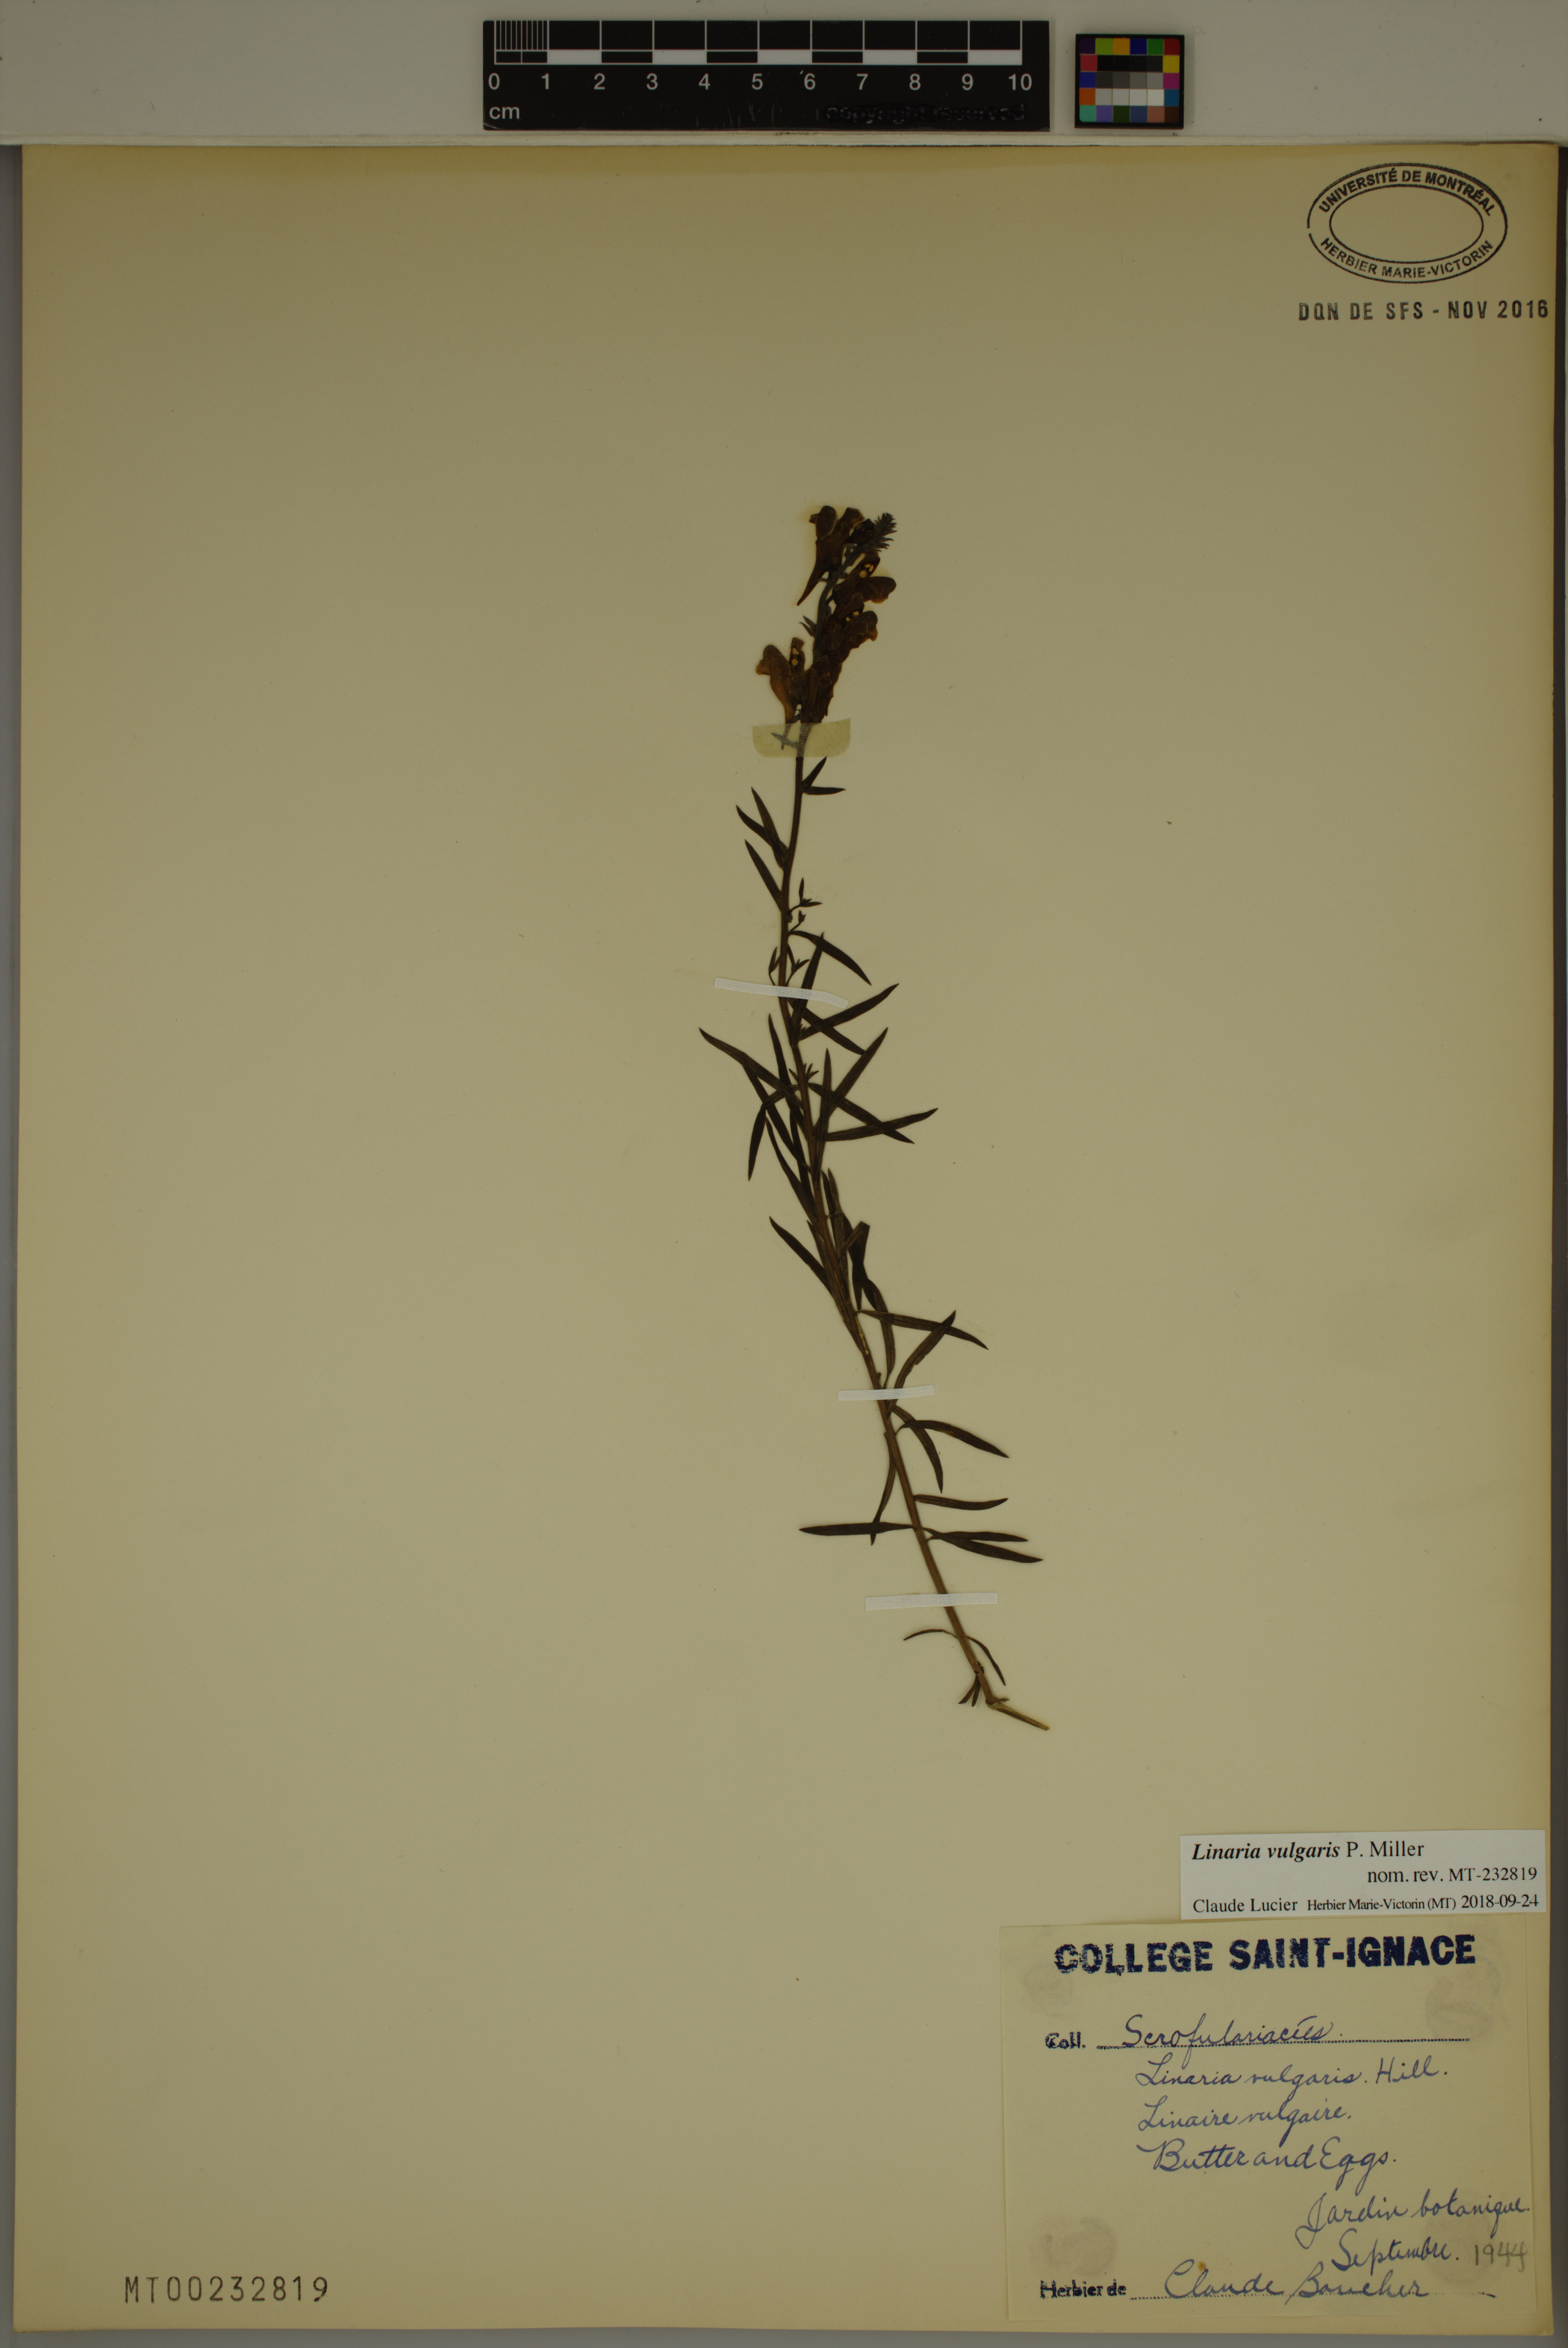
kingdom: Plantae
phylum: Tracheophyta
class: Magnoliopsida
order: Lamiales
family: Plantaginaceae
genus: Linaria
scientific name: Linaria vulgaris
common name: Butter and eggs
